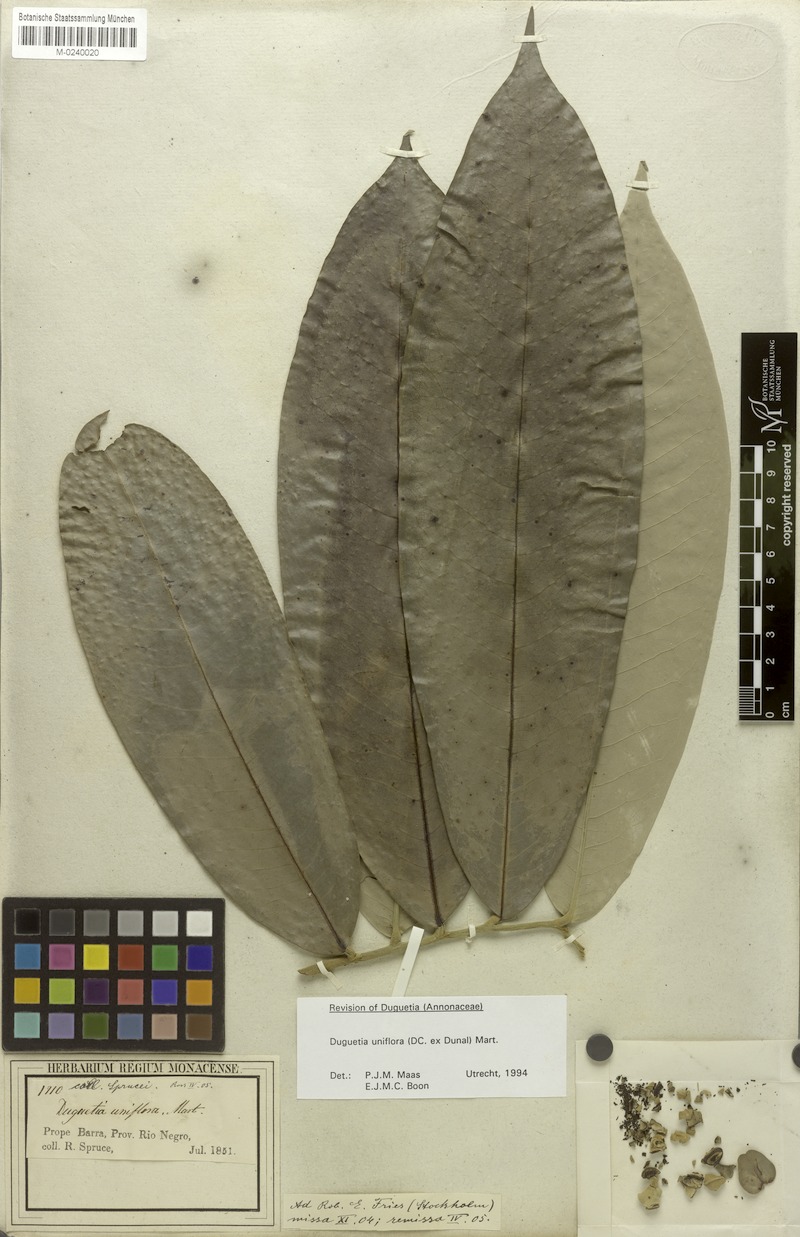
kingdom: Plantae
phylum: Tracheophyta
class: Magnoliopsida
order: Magnoliales
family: Annonaceae
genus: Duguetia
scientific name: Duguetia uniflora
